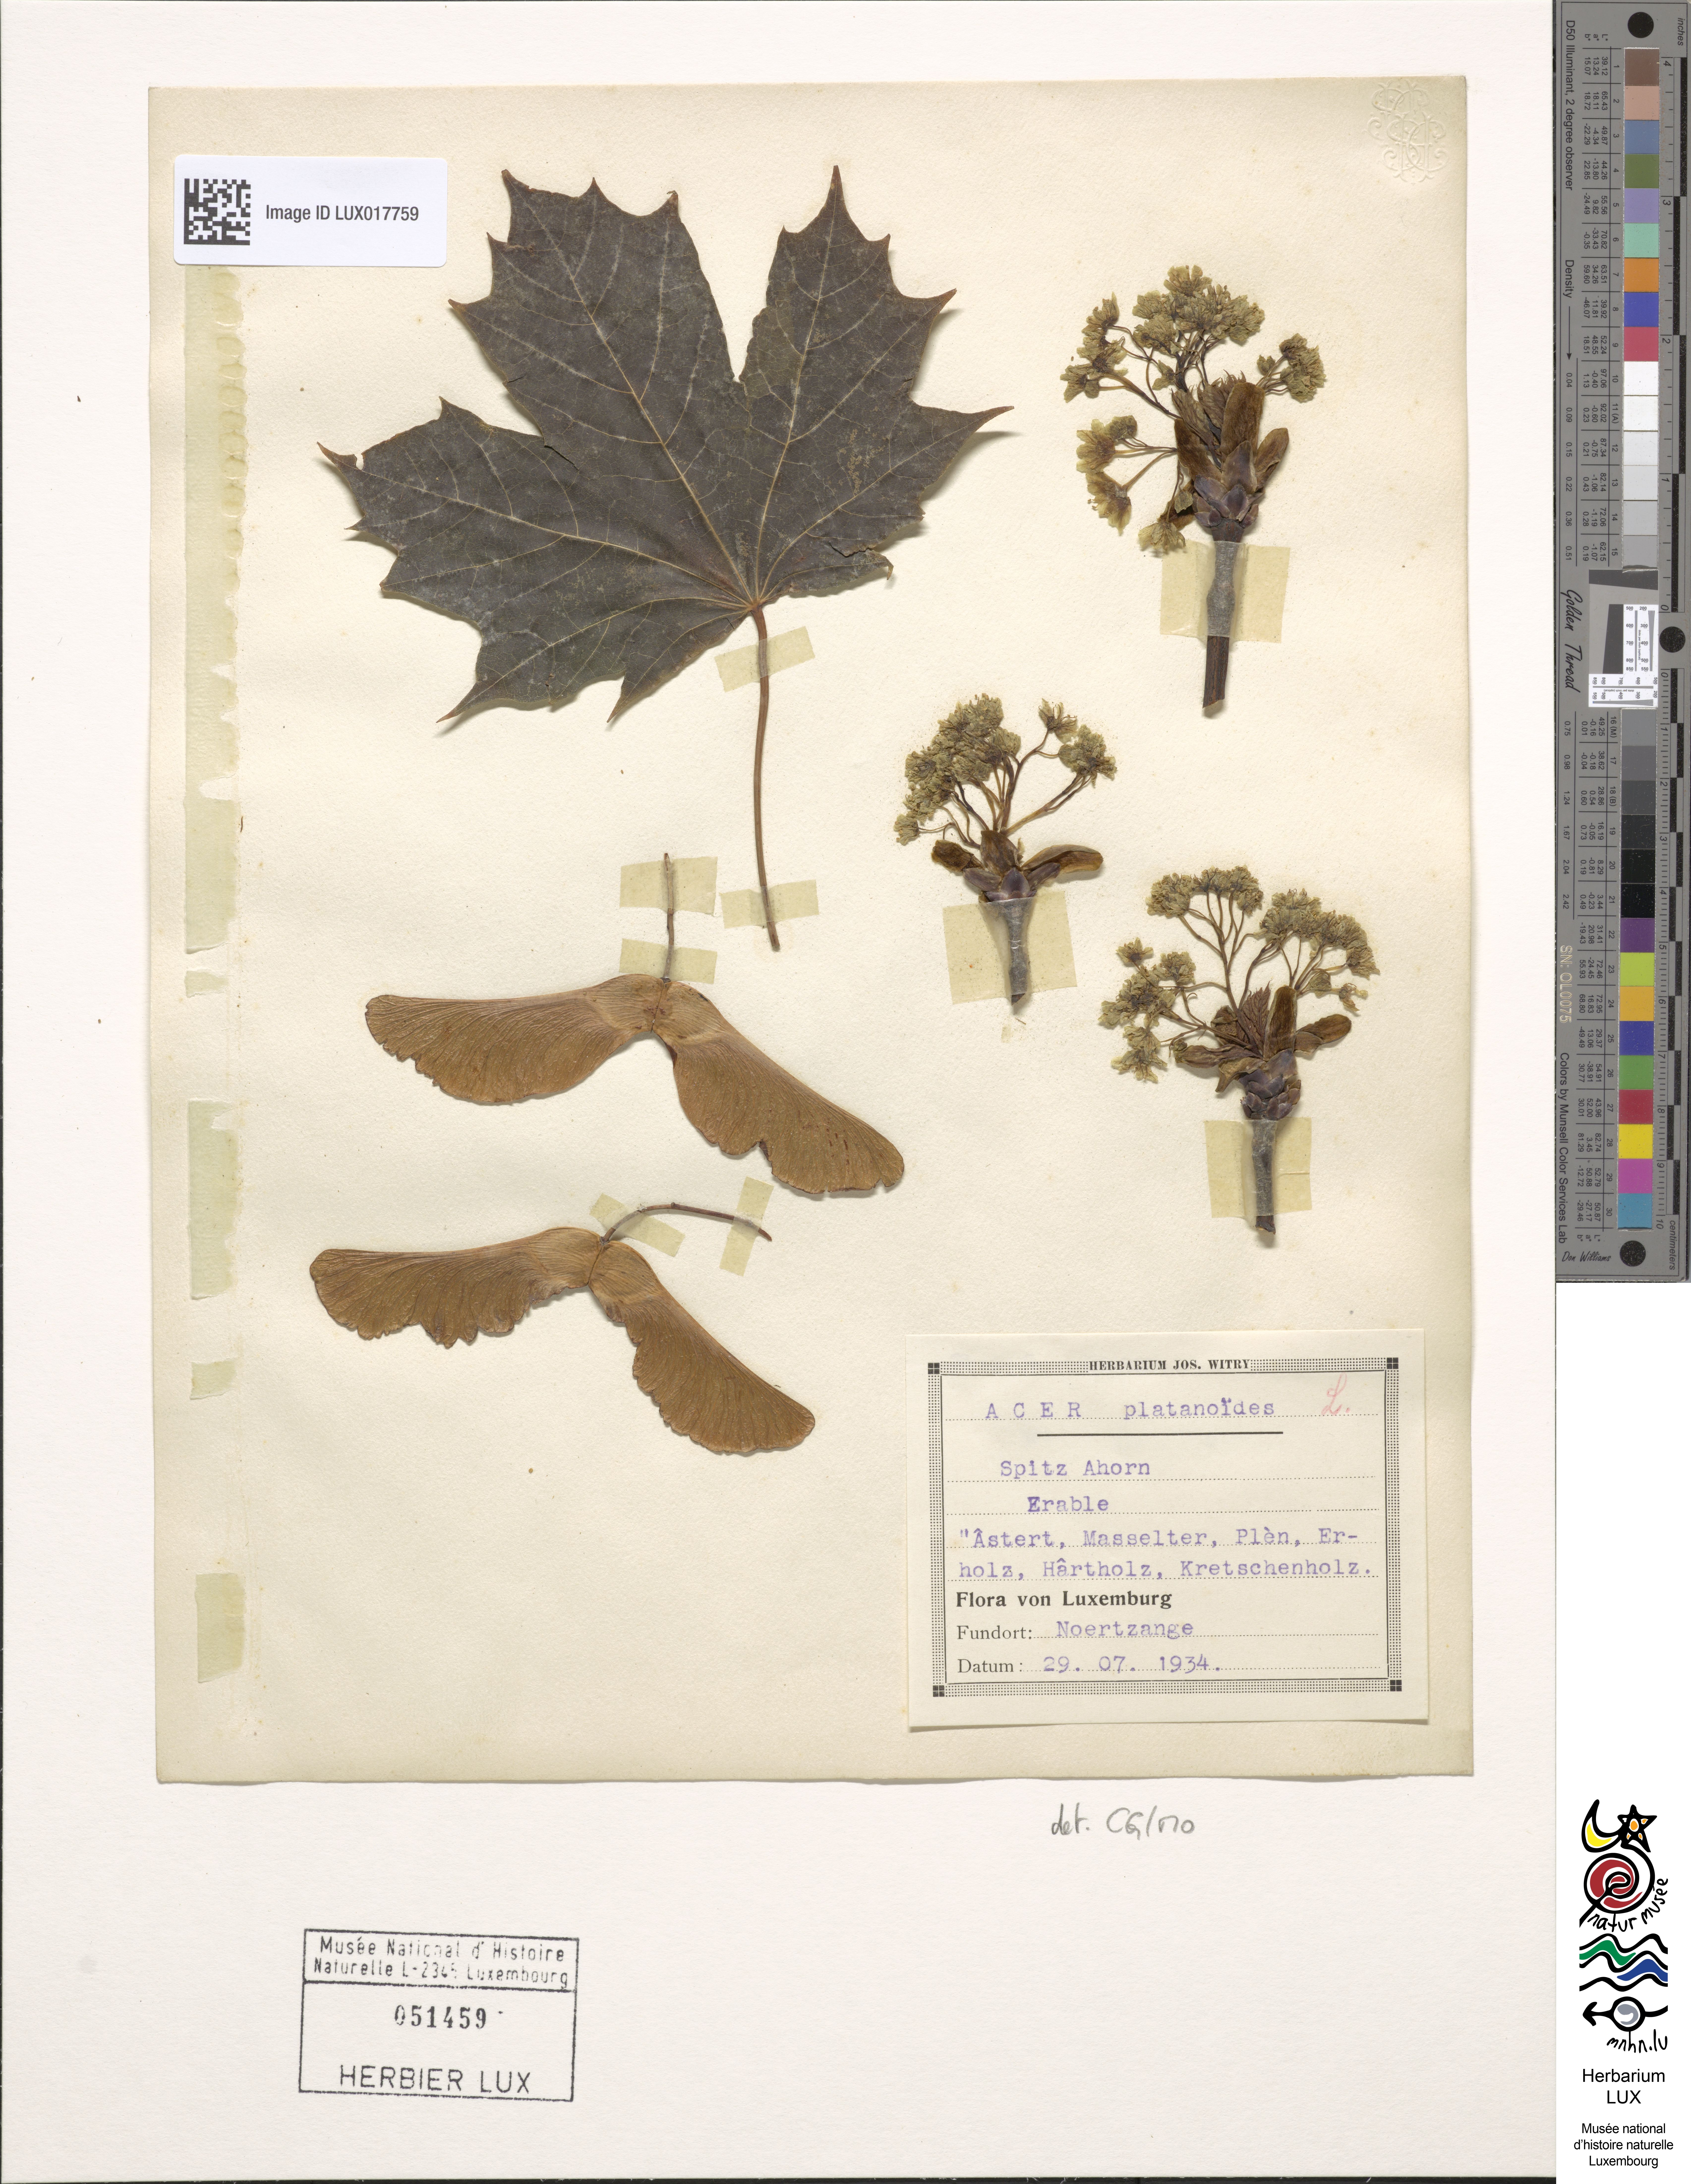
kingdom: Plantae
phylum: Tracheophyta
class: Magnoliopsida
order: Sapindales
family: Sapindaceae
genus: Acer
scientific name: Acer platanoides
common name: Norway maple
